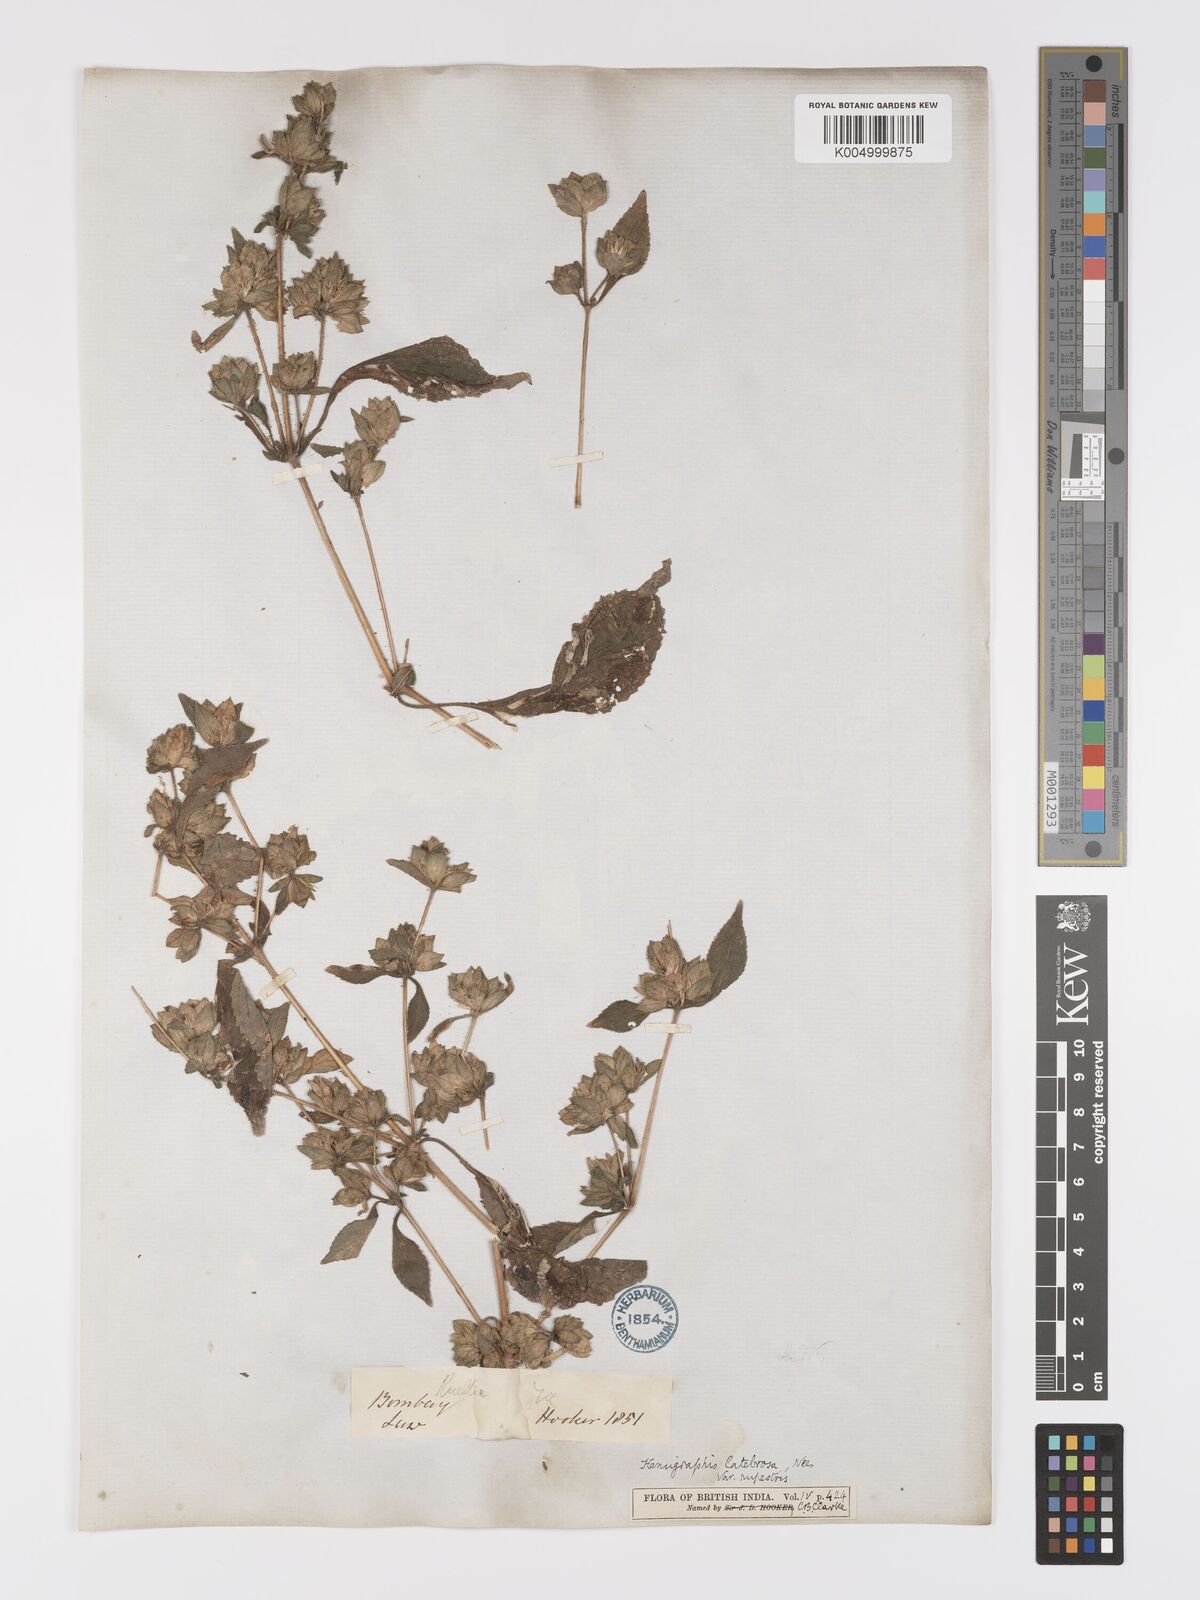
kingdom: Plantae
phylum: Tracheophyta
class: Magnoliopsida
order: Lamiales
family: Acanthaceae
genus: Strobilanthes
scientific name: Strobilanthes pavala
